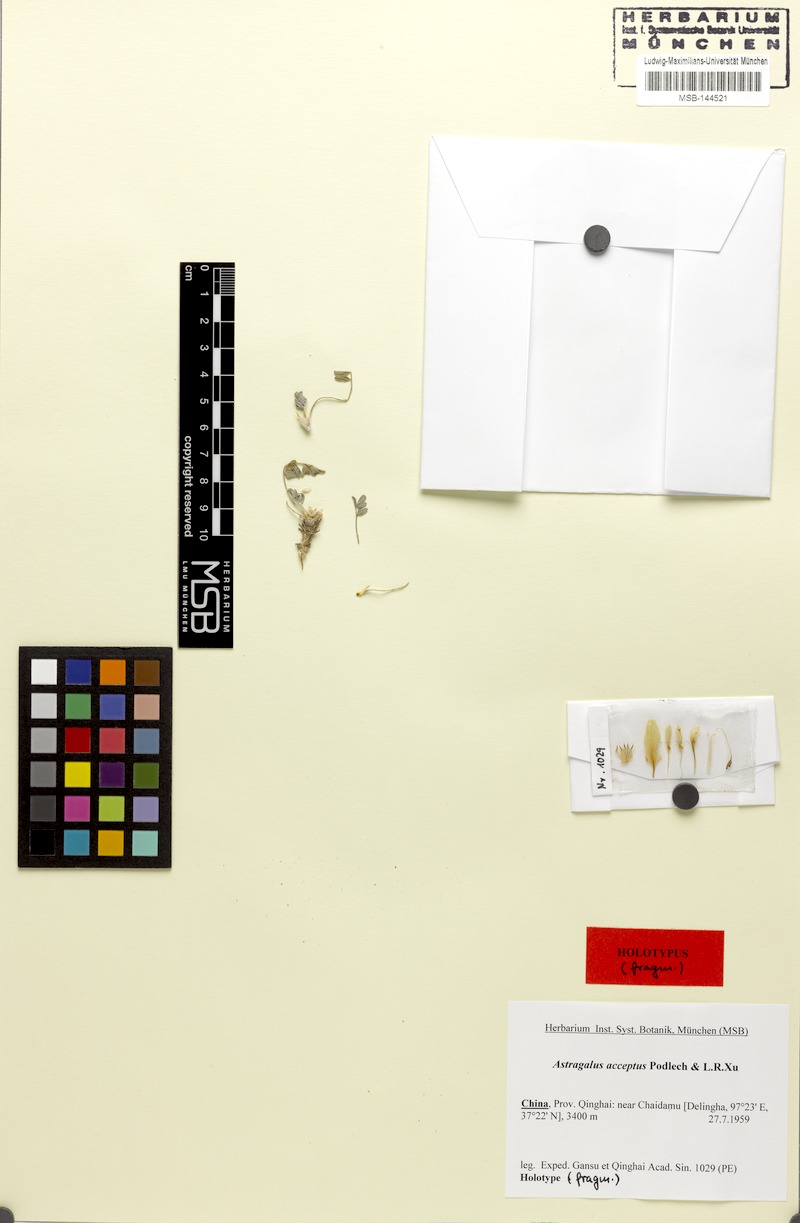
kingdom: Plantae
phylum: Tracheophyta
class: Magnoliopsida
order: Fabales
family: Fabaceae
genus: Astragalus
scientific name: Astragalus acceptus
